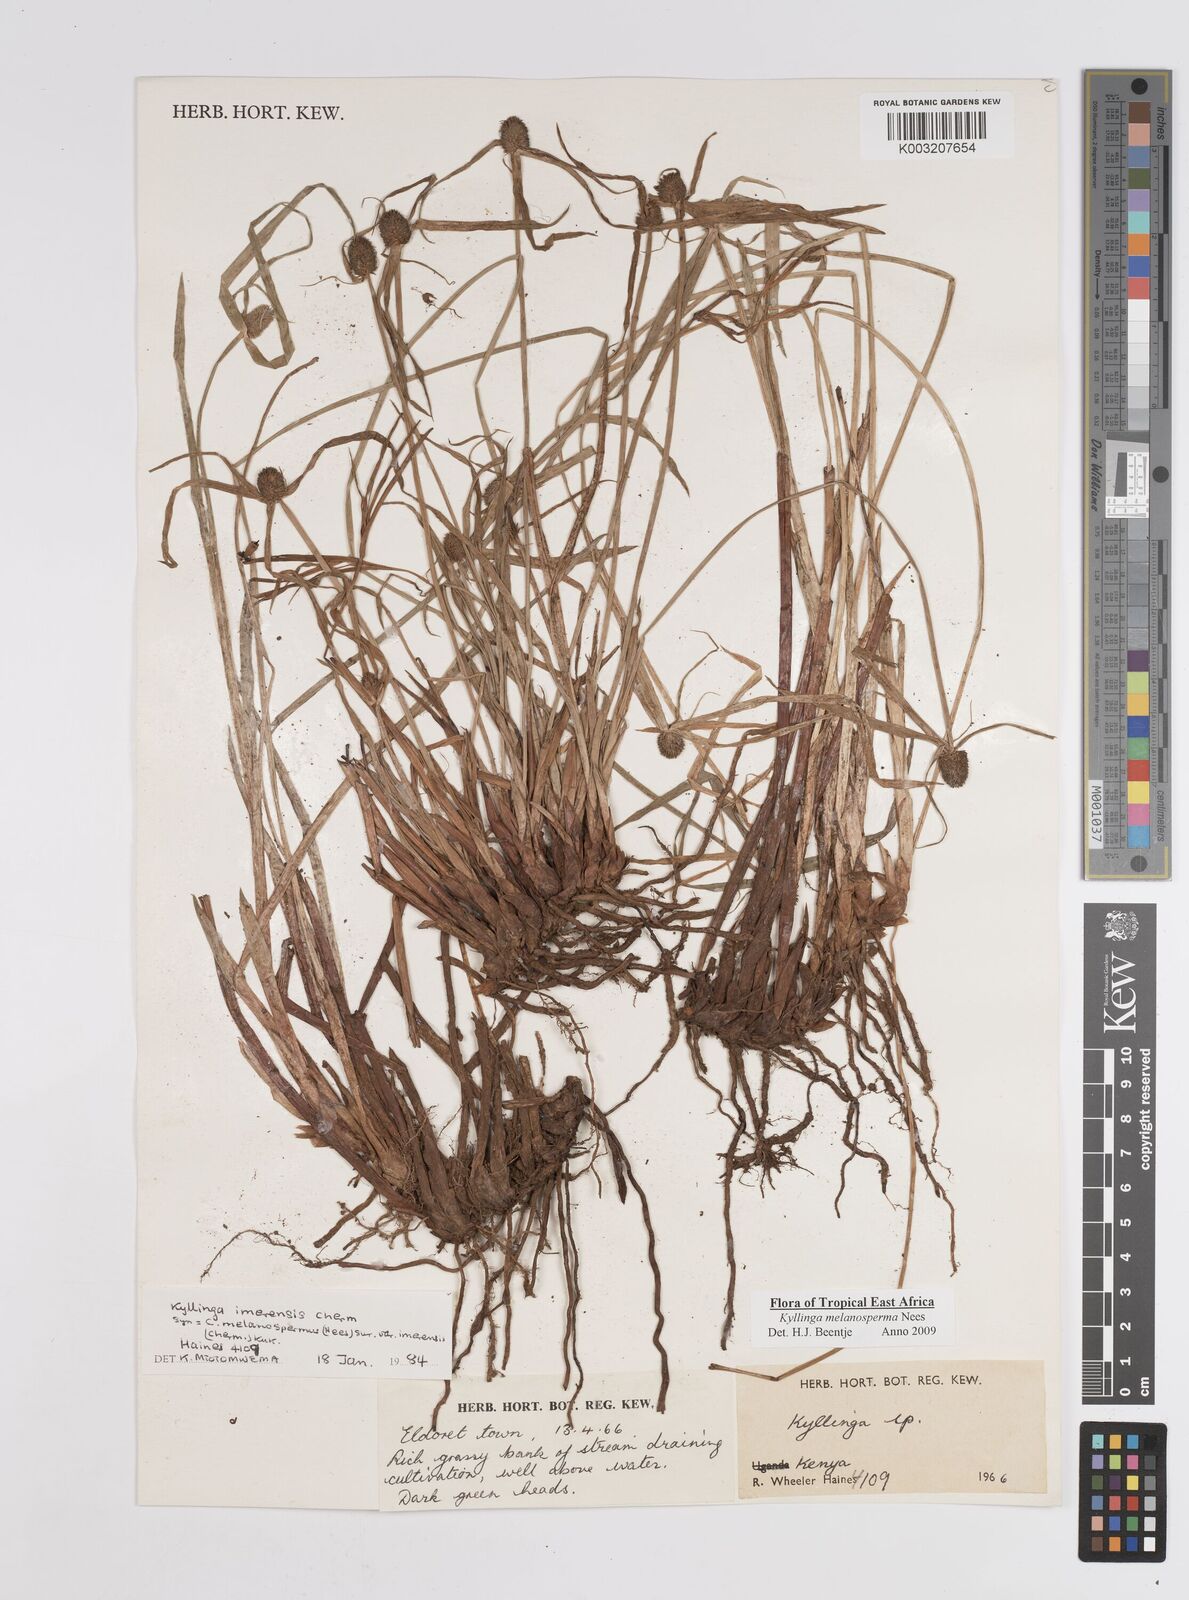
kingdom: Plantae
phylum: Tracheophyta
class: Liliopsida
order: Poales
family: Cyperaceae
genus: Cyperus
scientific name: Cyperus melanospermus
